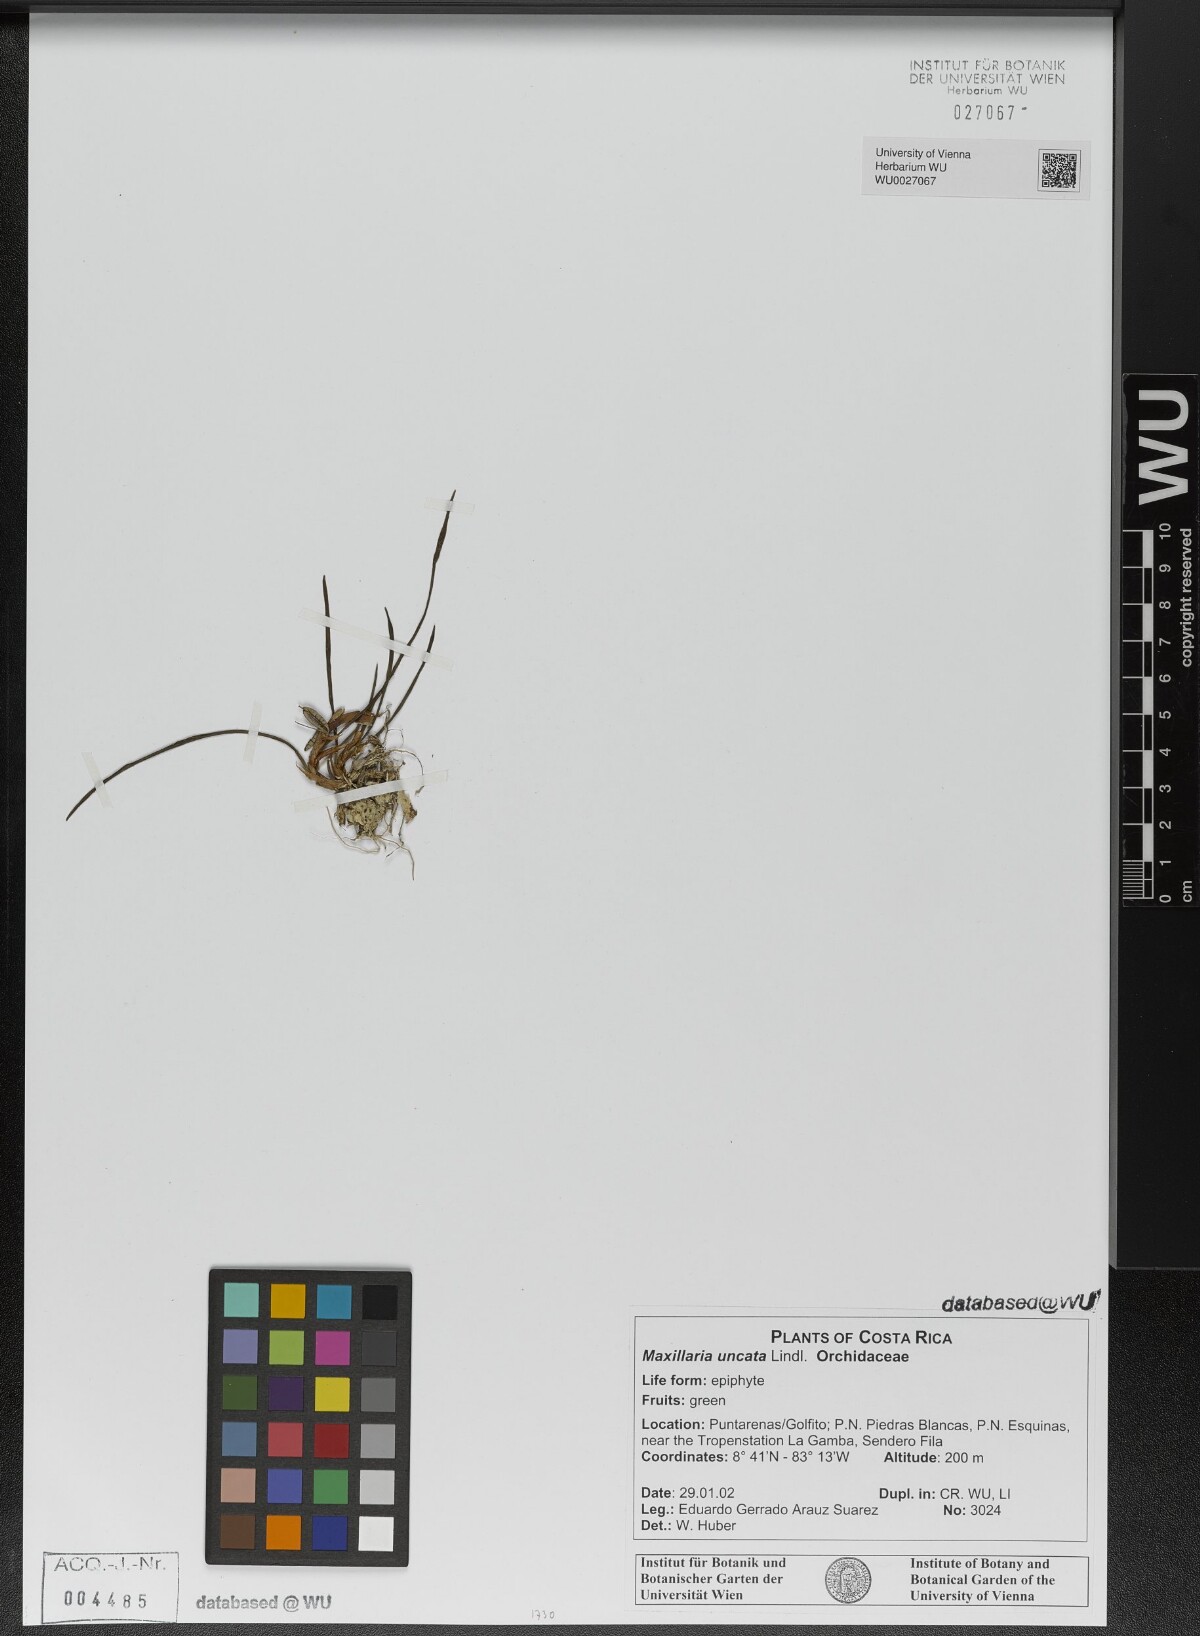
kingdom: Plantae
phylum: Tracheophyta
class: Liliopsida
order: Asparagales
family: Orchidaceae
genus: Maxillaria
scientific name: Maxillaria uncata
